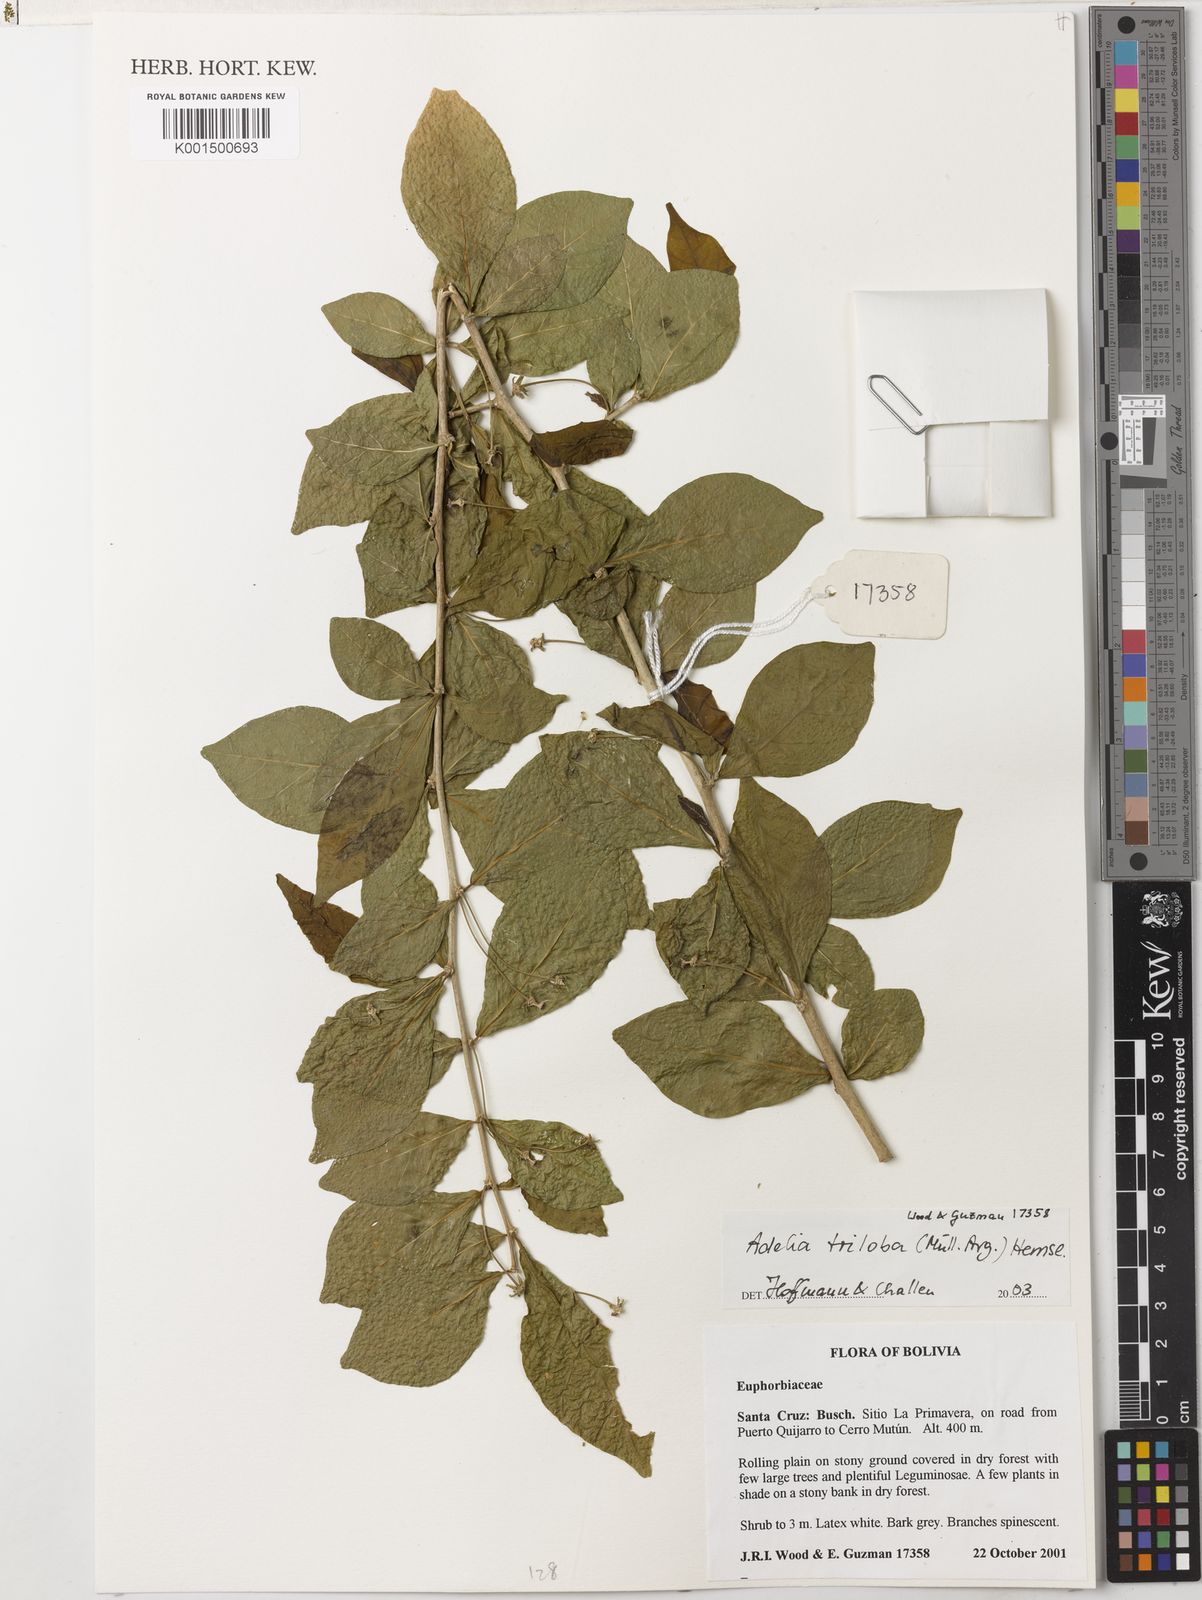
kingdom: Plantae
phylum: Tracheophyta
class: Magnoliopsida
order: Malpighiales
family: Euphorbiaceae
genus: Adelia
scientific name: Adelia triloba
